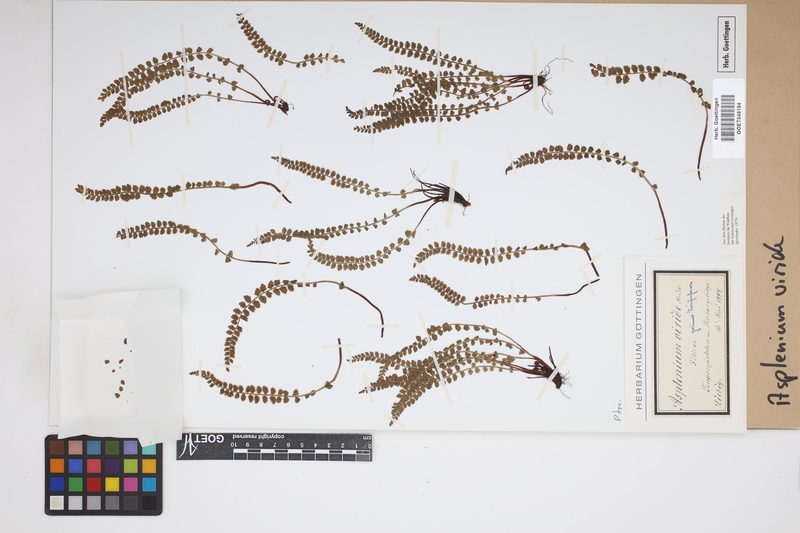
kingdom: Plantae
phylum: Tracheophyta
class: Polypodiopsida
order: Polypodiales
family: Aspleniaceae
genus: Asplenium
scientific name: Asplenium viride
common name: Green spleenwort
